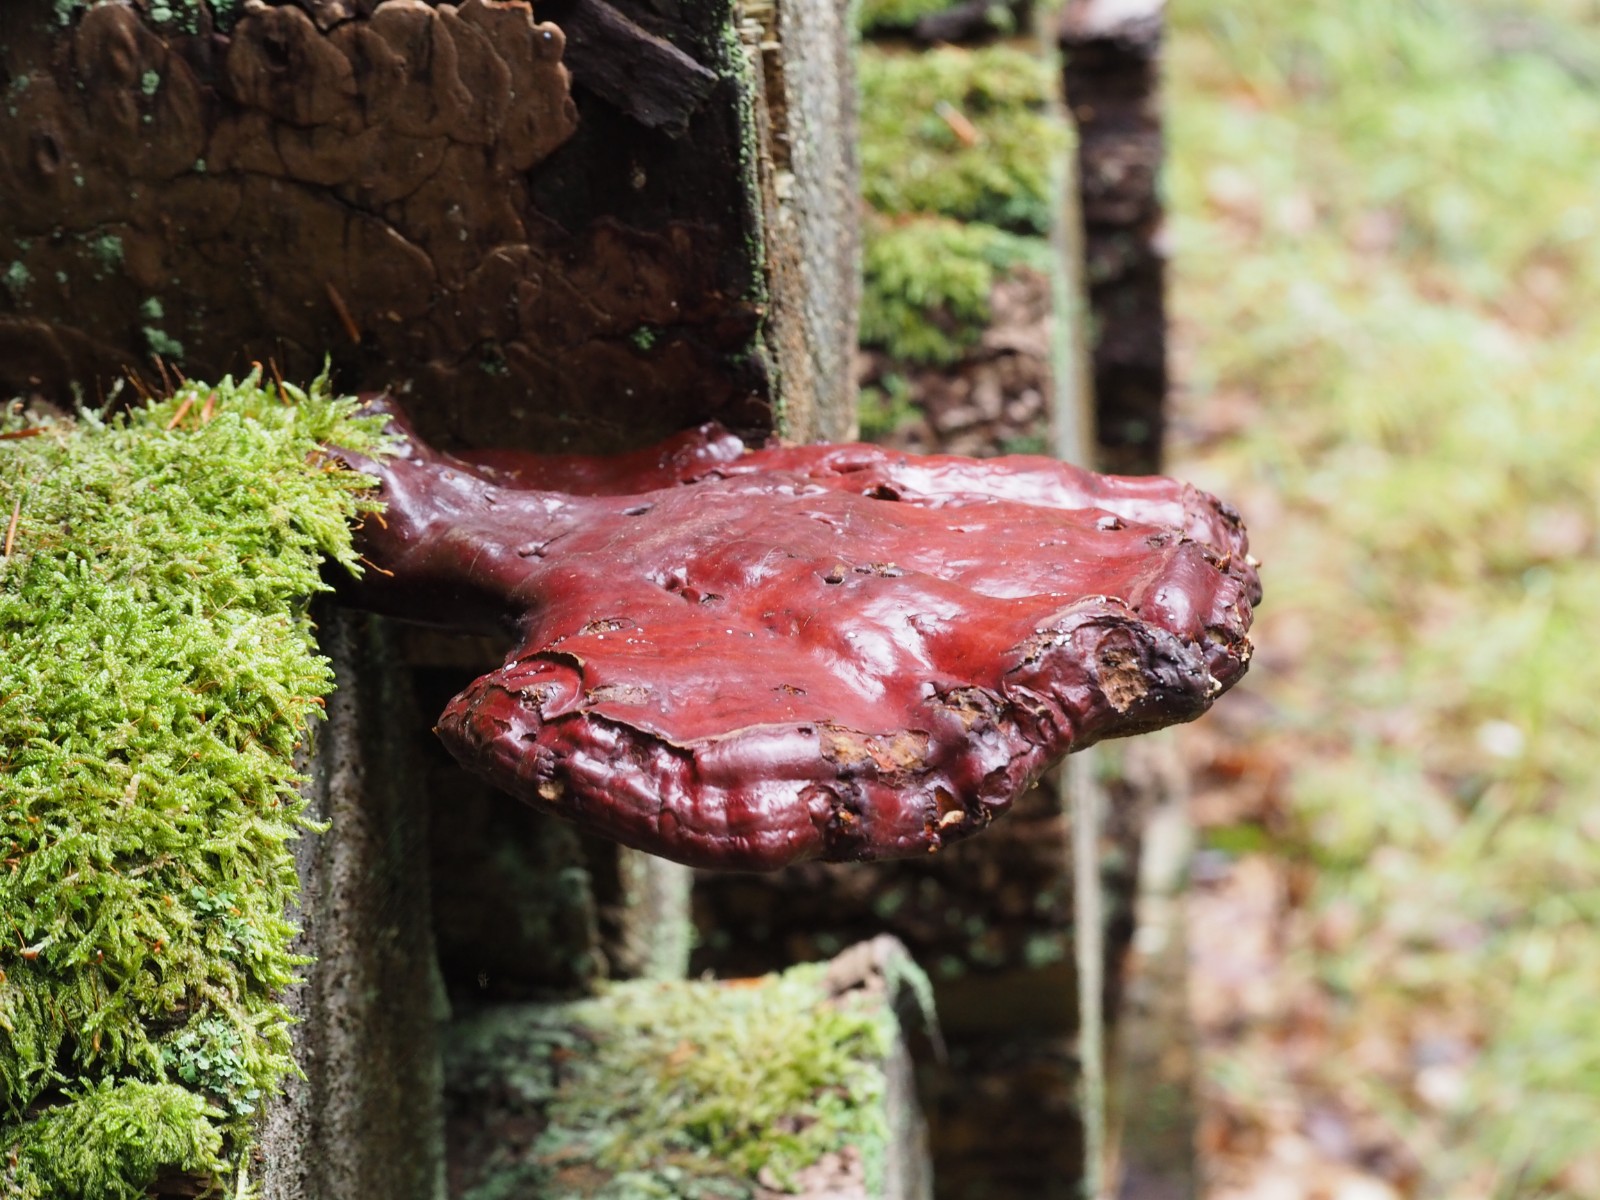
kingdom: Fungi
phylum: Basidiomycota
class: Agaricomycetes
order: Polyporales
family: Polyporaceae
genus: Ganoderma
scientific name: Ganoderma lucidum
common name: skinnende lakporesvamp
